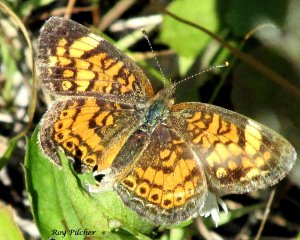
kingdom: Animalia
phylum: Arthropoda
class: Insecta
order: Lepidoptera
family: Nymphalidae
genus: Phyciodes
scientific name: Phyciodes tharos
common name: Pearl Crescent
